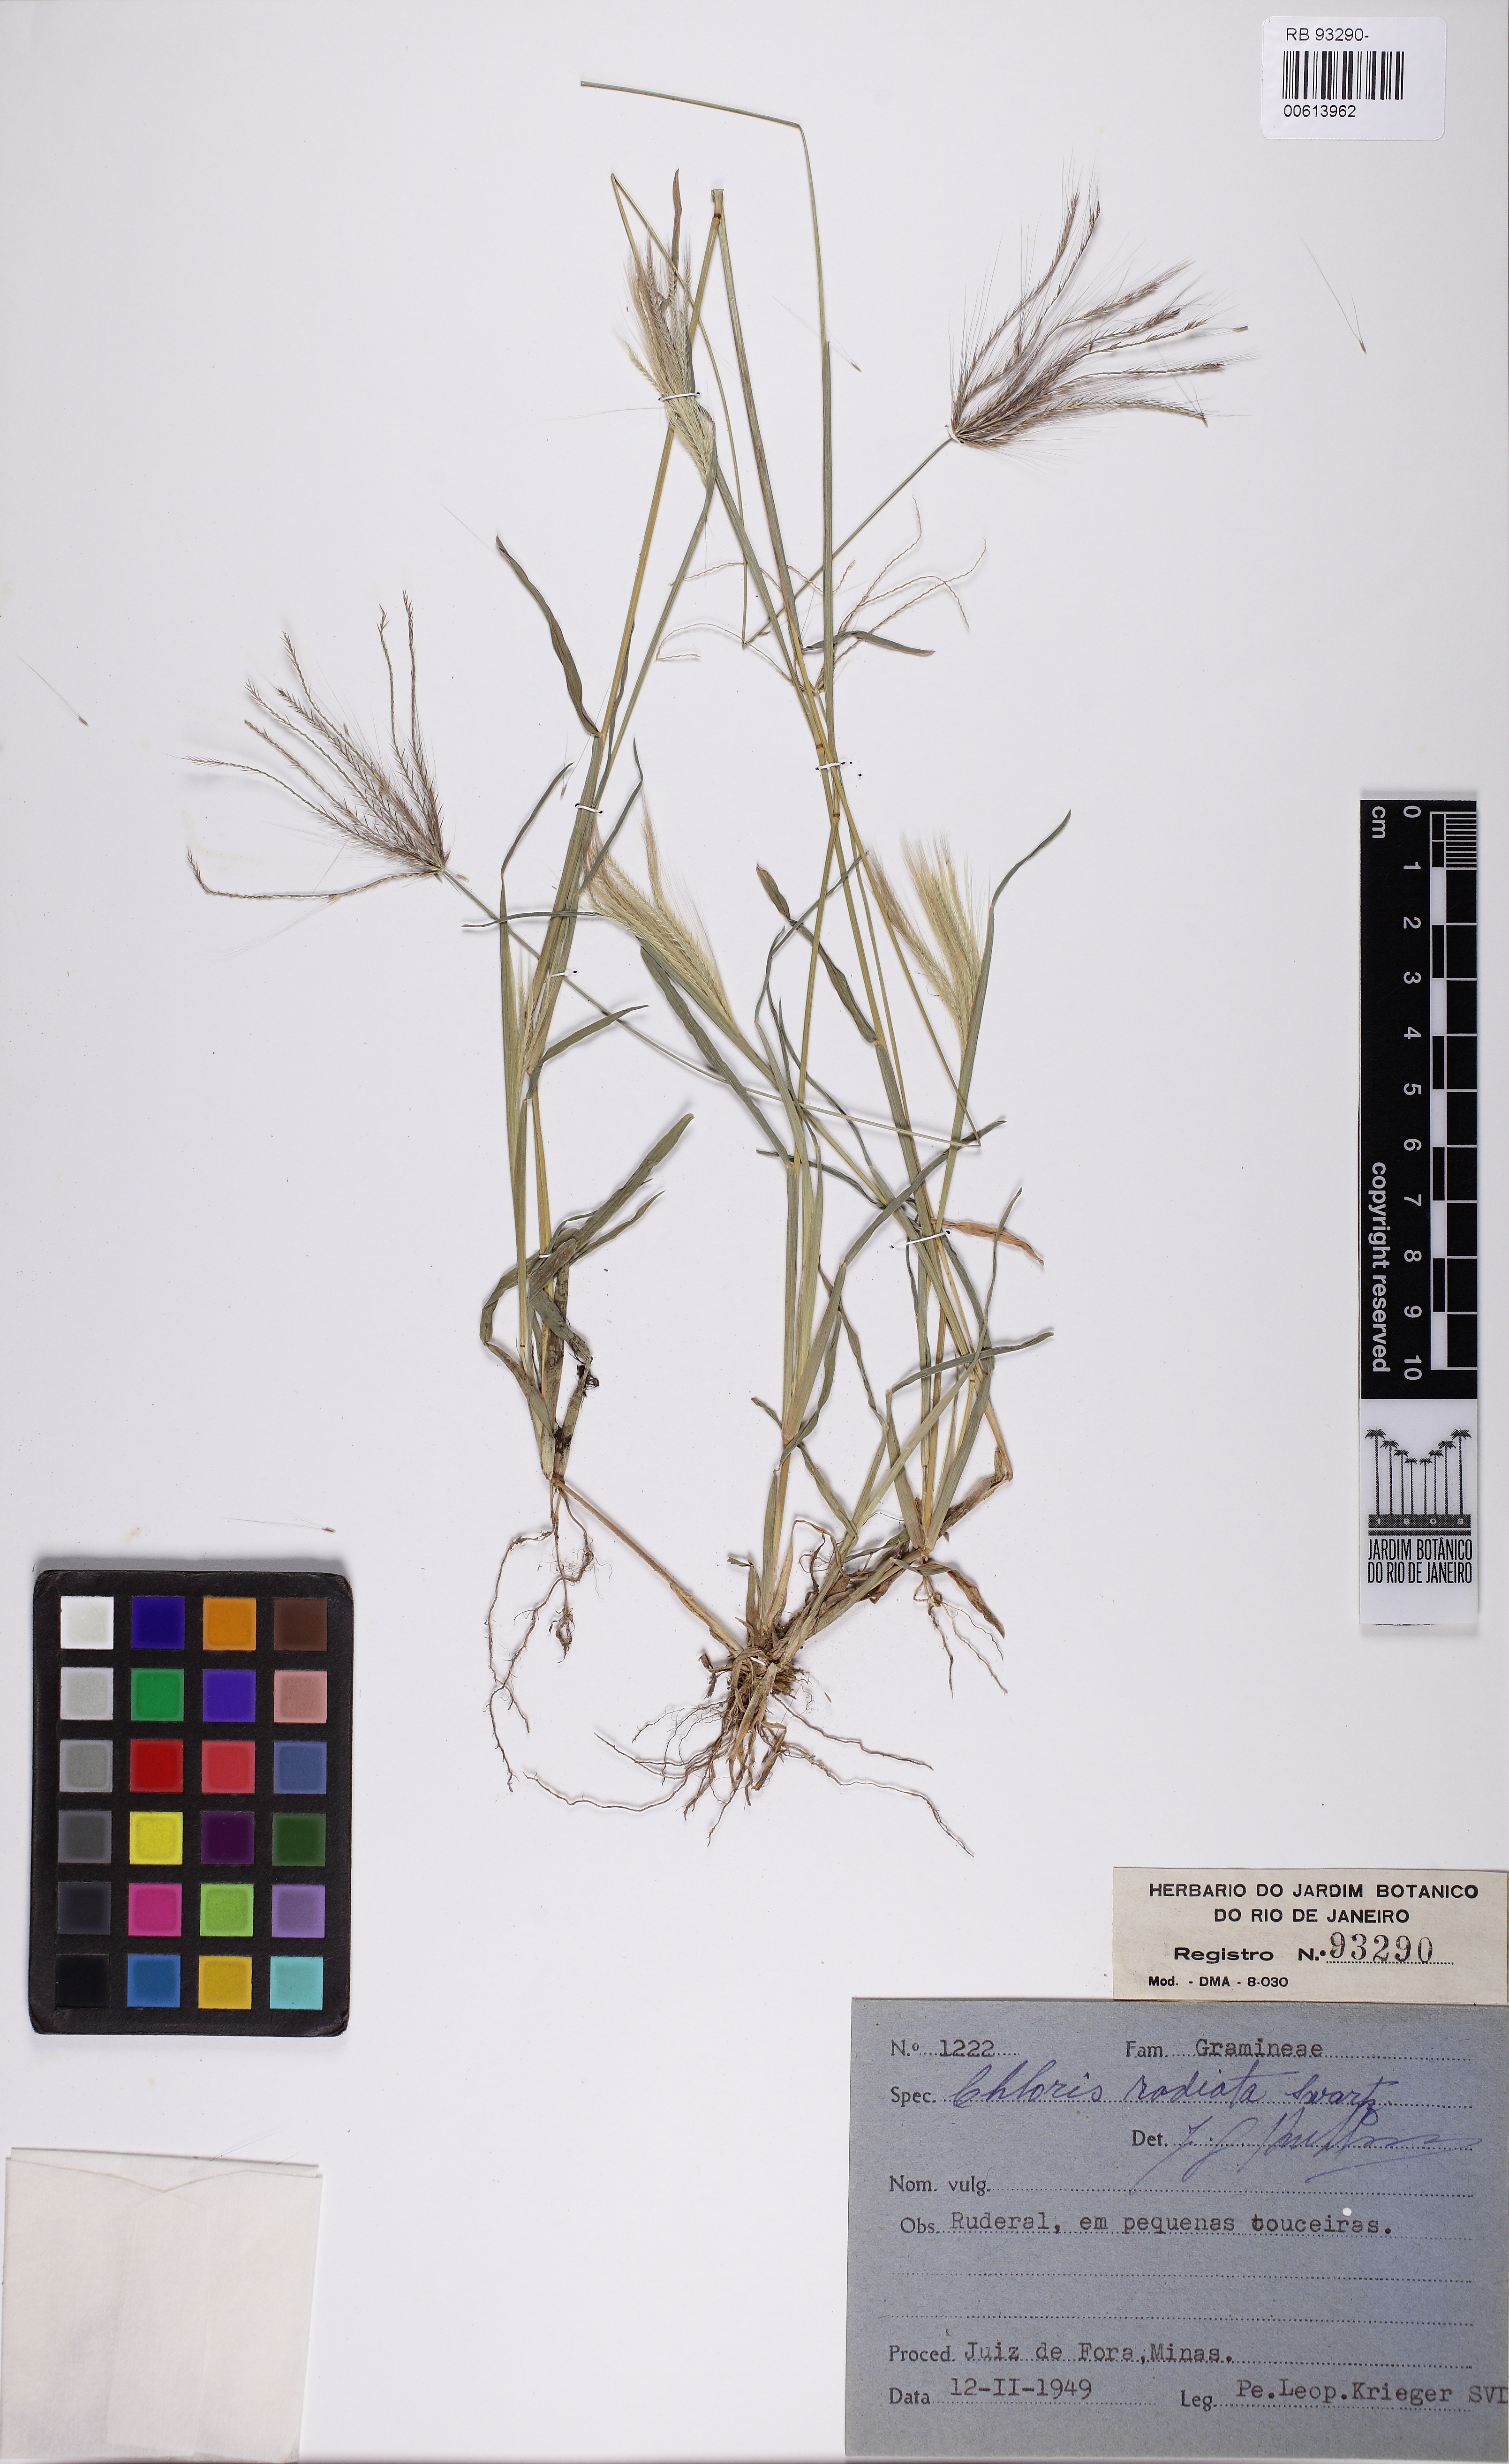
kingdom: Plantae
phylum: Tracheophyta
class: Liliopsida
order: Poales
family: Poaceae
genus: Chloris
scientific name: Chloris radiata
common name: Radiate fingergrass
